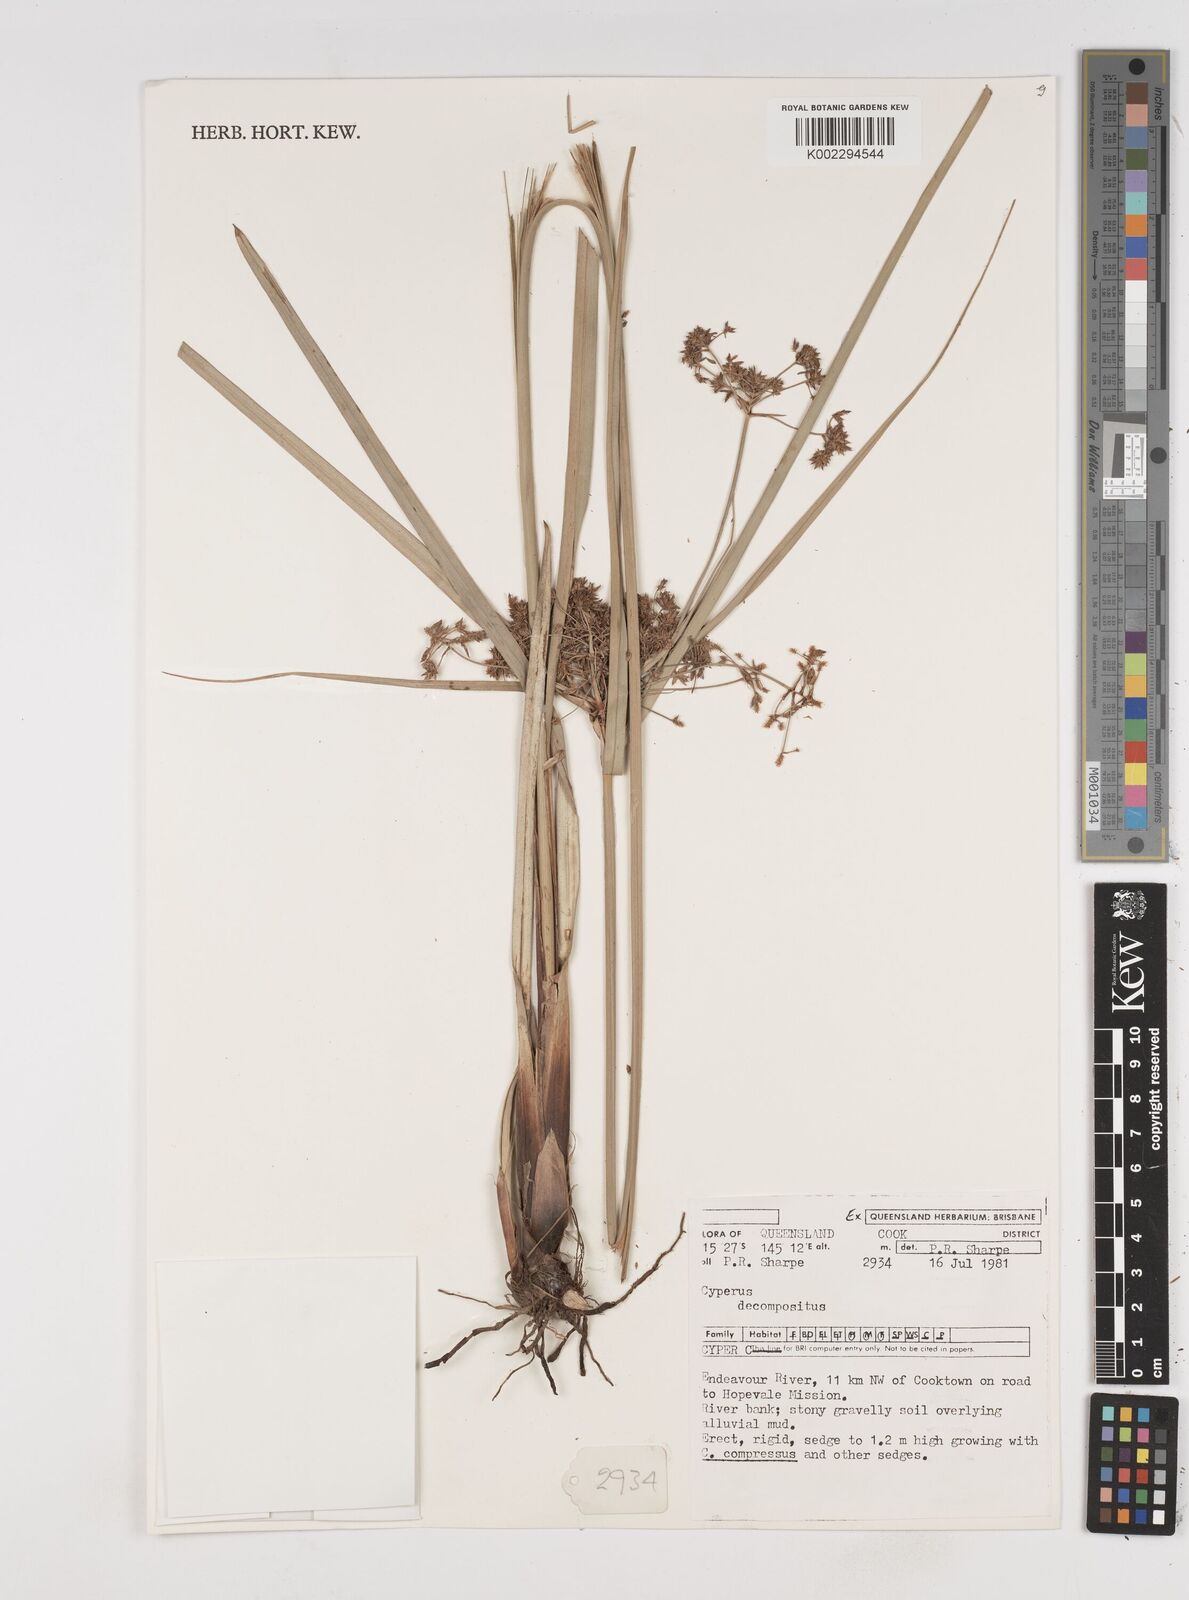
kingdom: Plantae
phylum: Tracheophyta
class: Liliopsida
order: Poales
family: Cyperaceae
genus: Cyperus
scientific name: Cyperus decompositus
